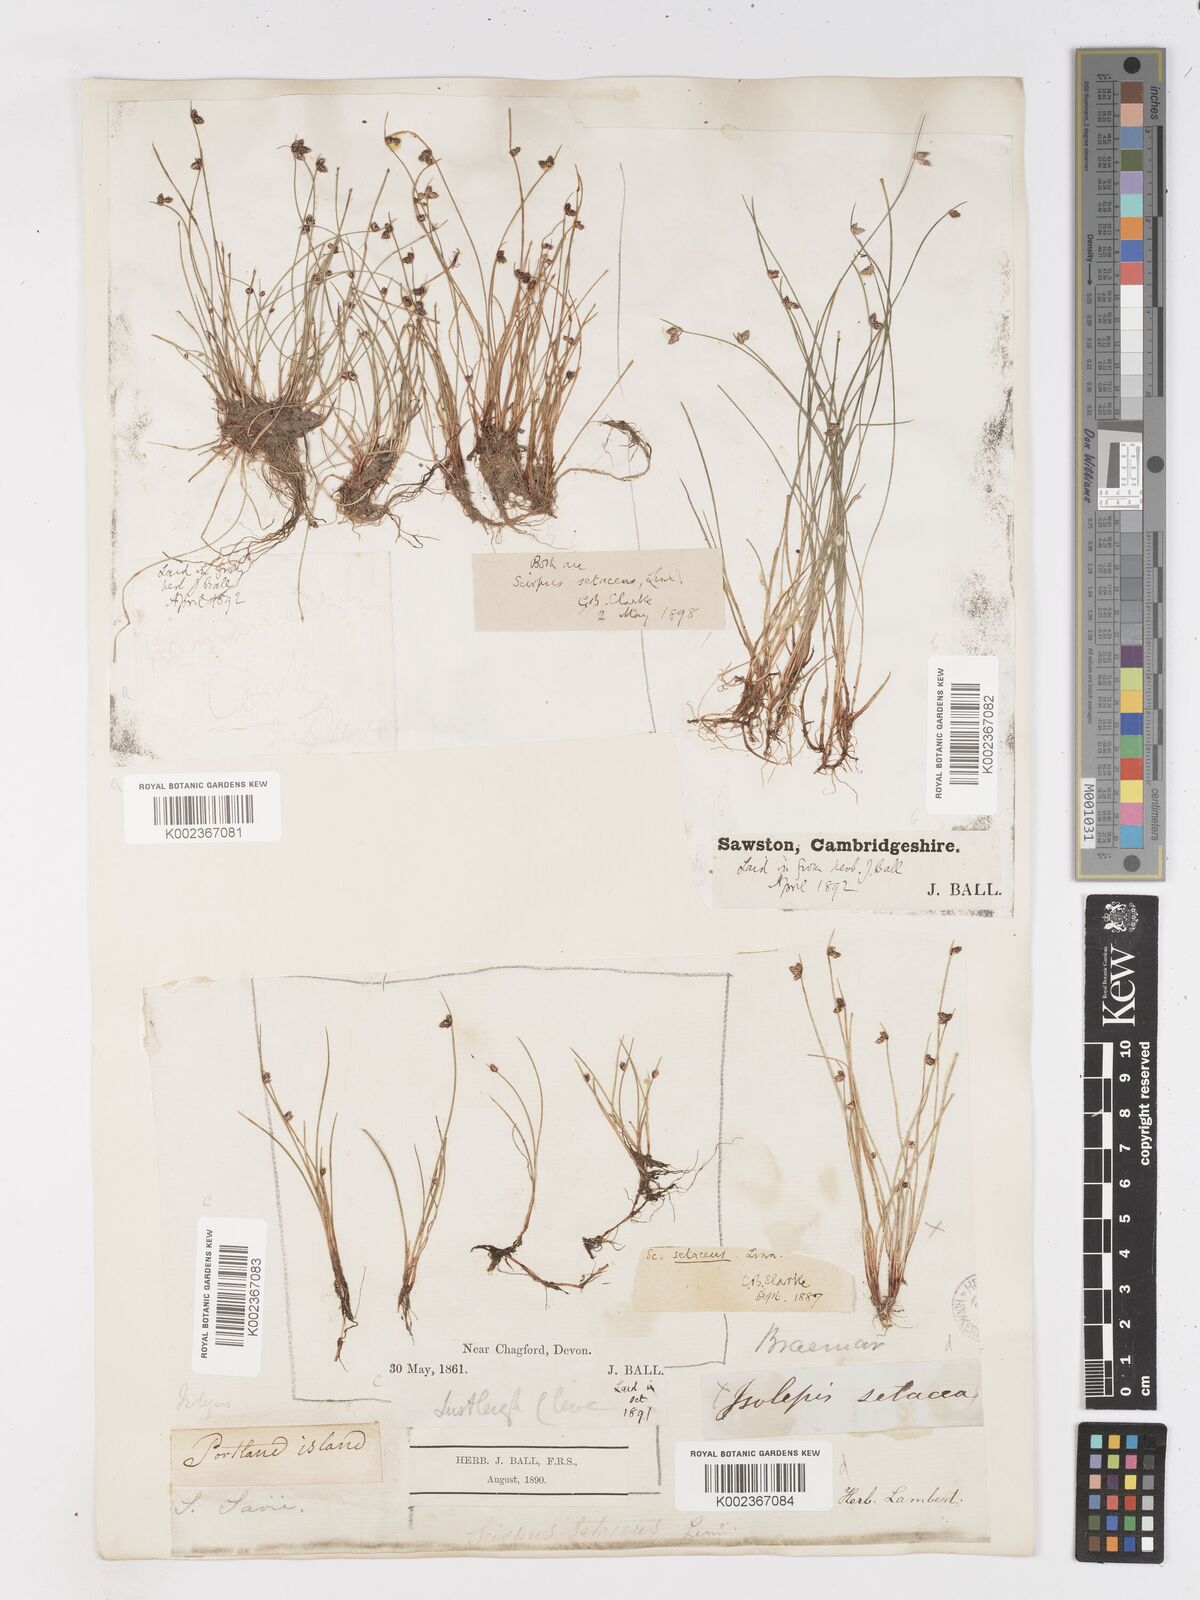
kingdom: Plantae
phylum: Tracheophyta
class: Liliopsida
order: Poales
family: Cyperaceae
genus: Isolepis
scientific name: Isolepis setacea
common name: Bristle club-rush
